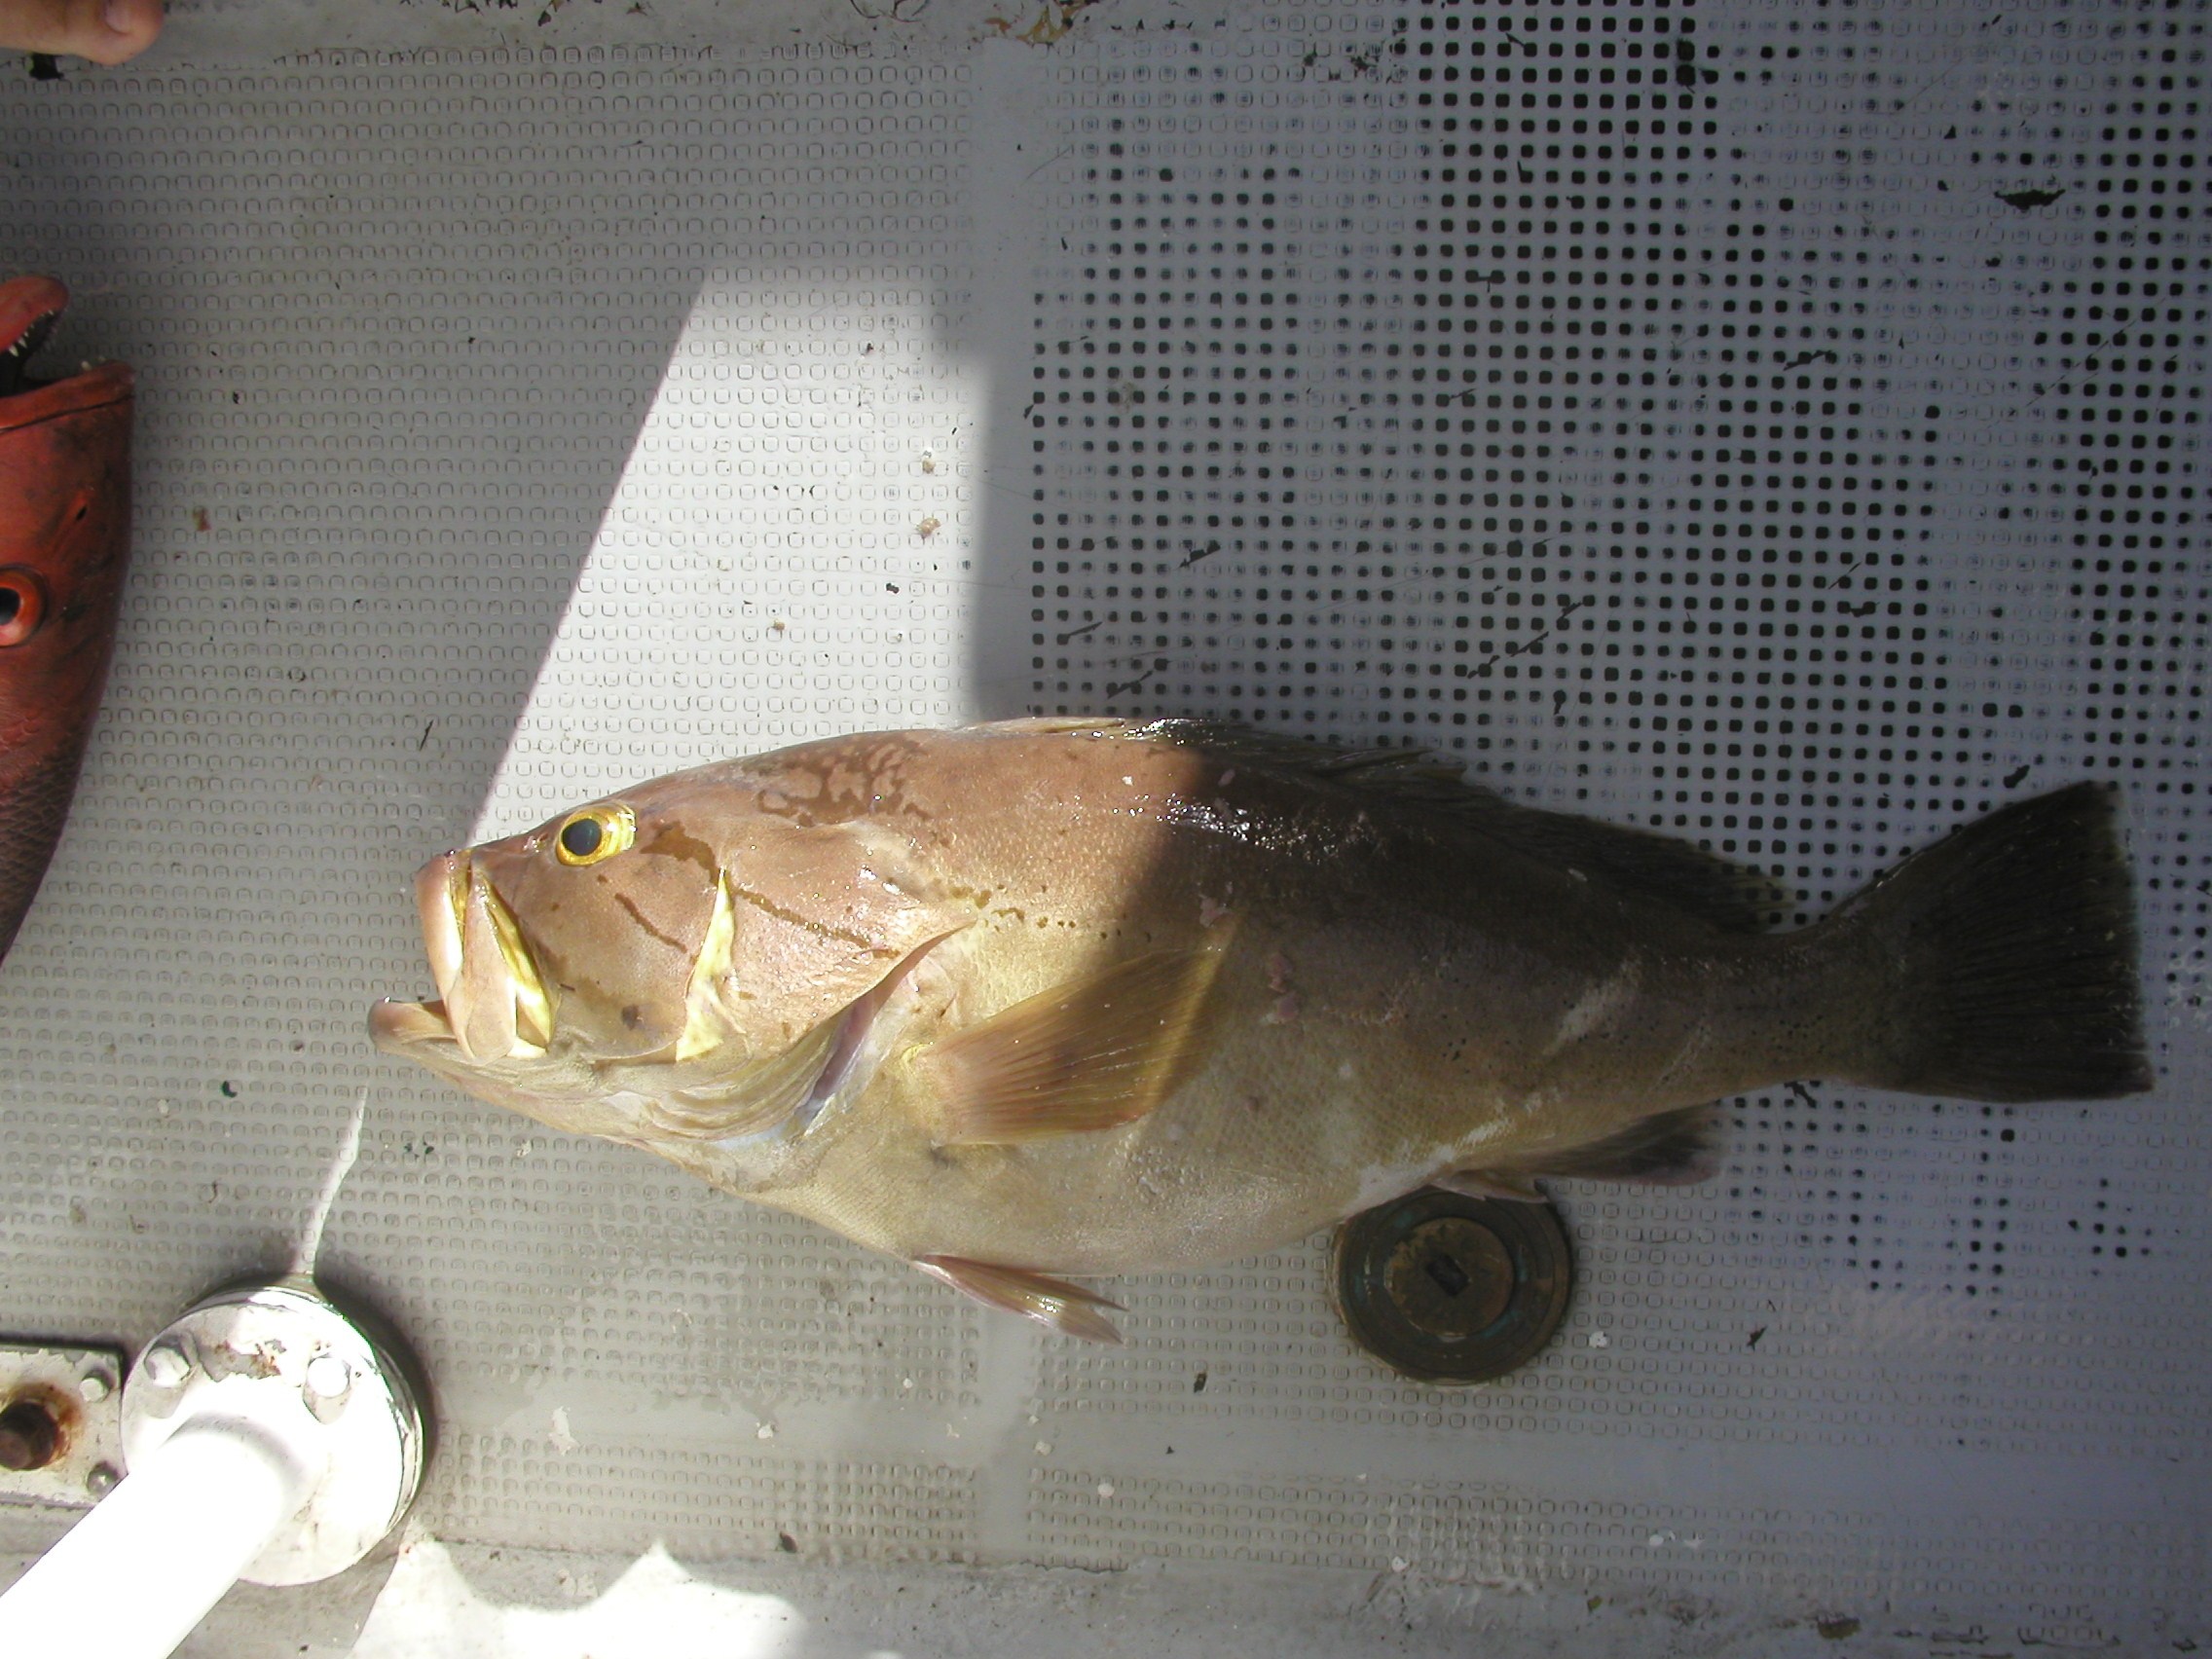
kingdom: Animalia
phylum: Chordata
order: Perciformes
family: Serranidae
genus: Epinephelus
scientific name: Epinephelus poecilonotus
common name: Dot-dash grouper
